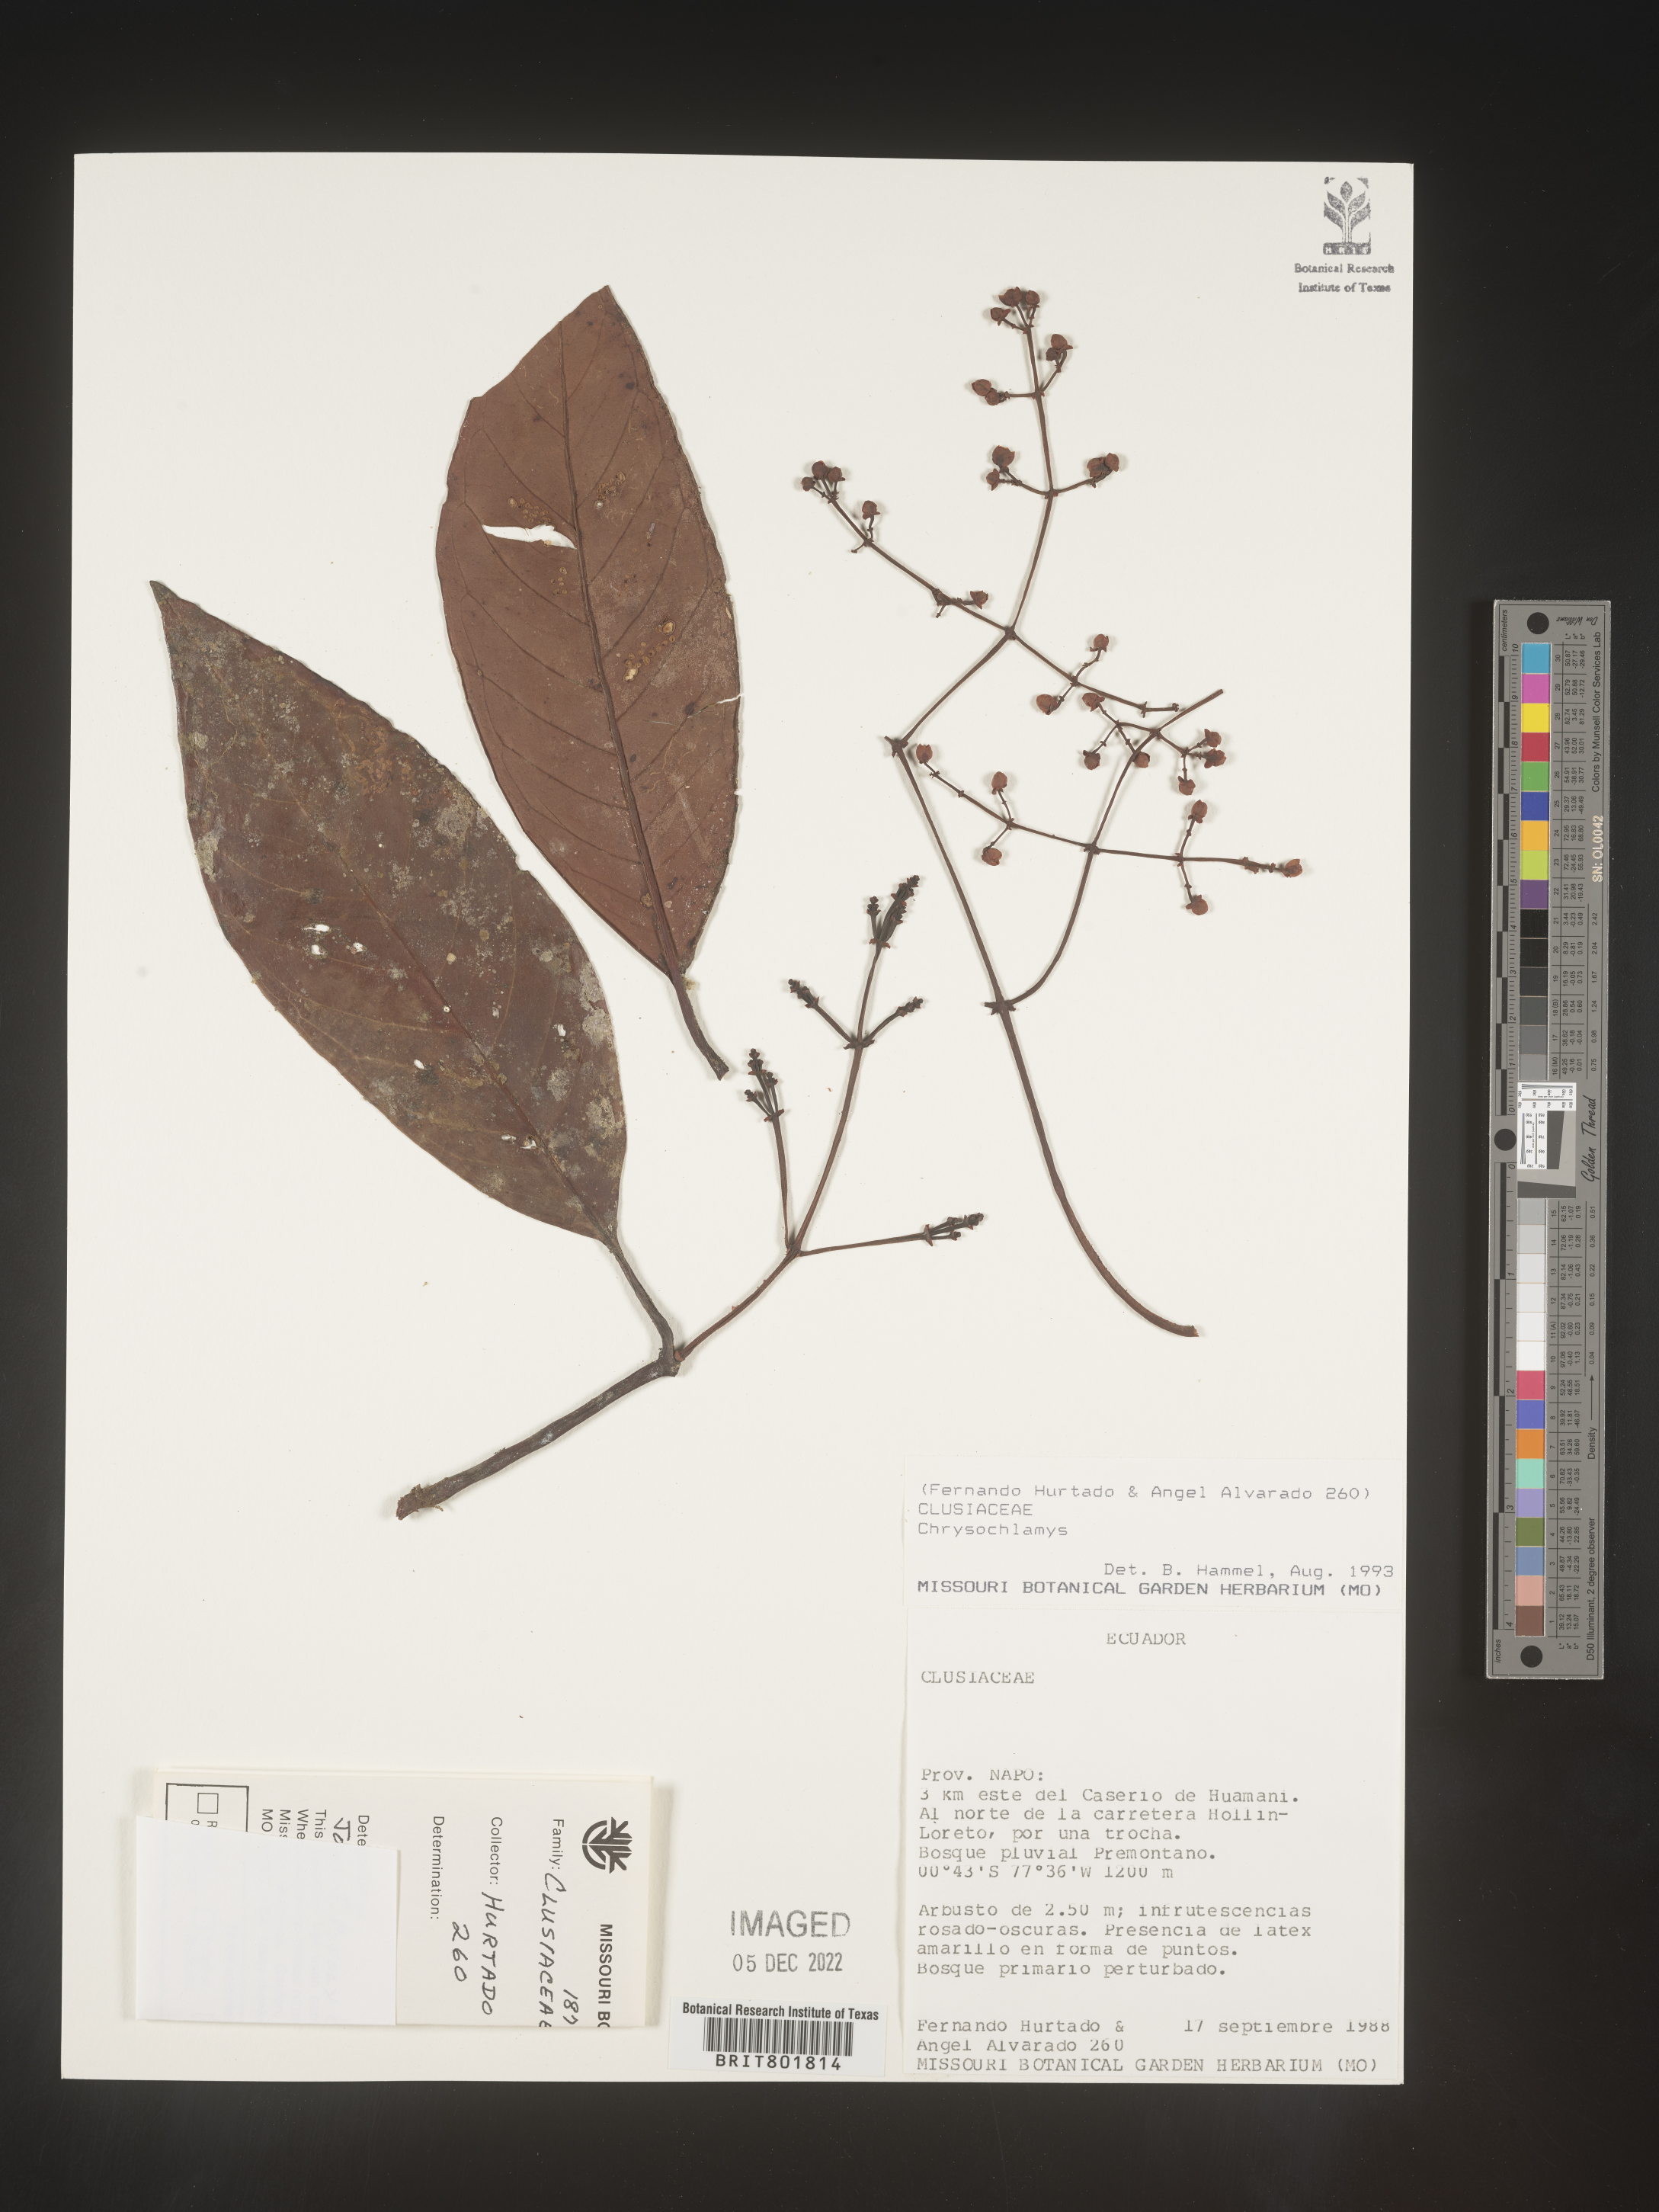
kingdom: Plantae
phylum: Tracheophyta
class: Magnoliopsida
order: Malpighiales
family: Clusiaceae
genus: Chrysochlamys
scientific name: Chrysochlamys
